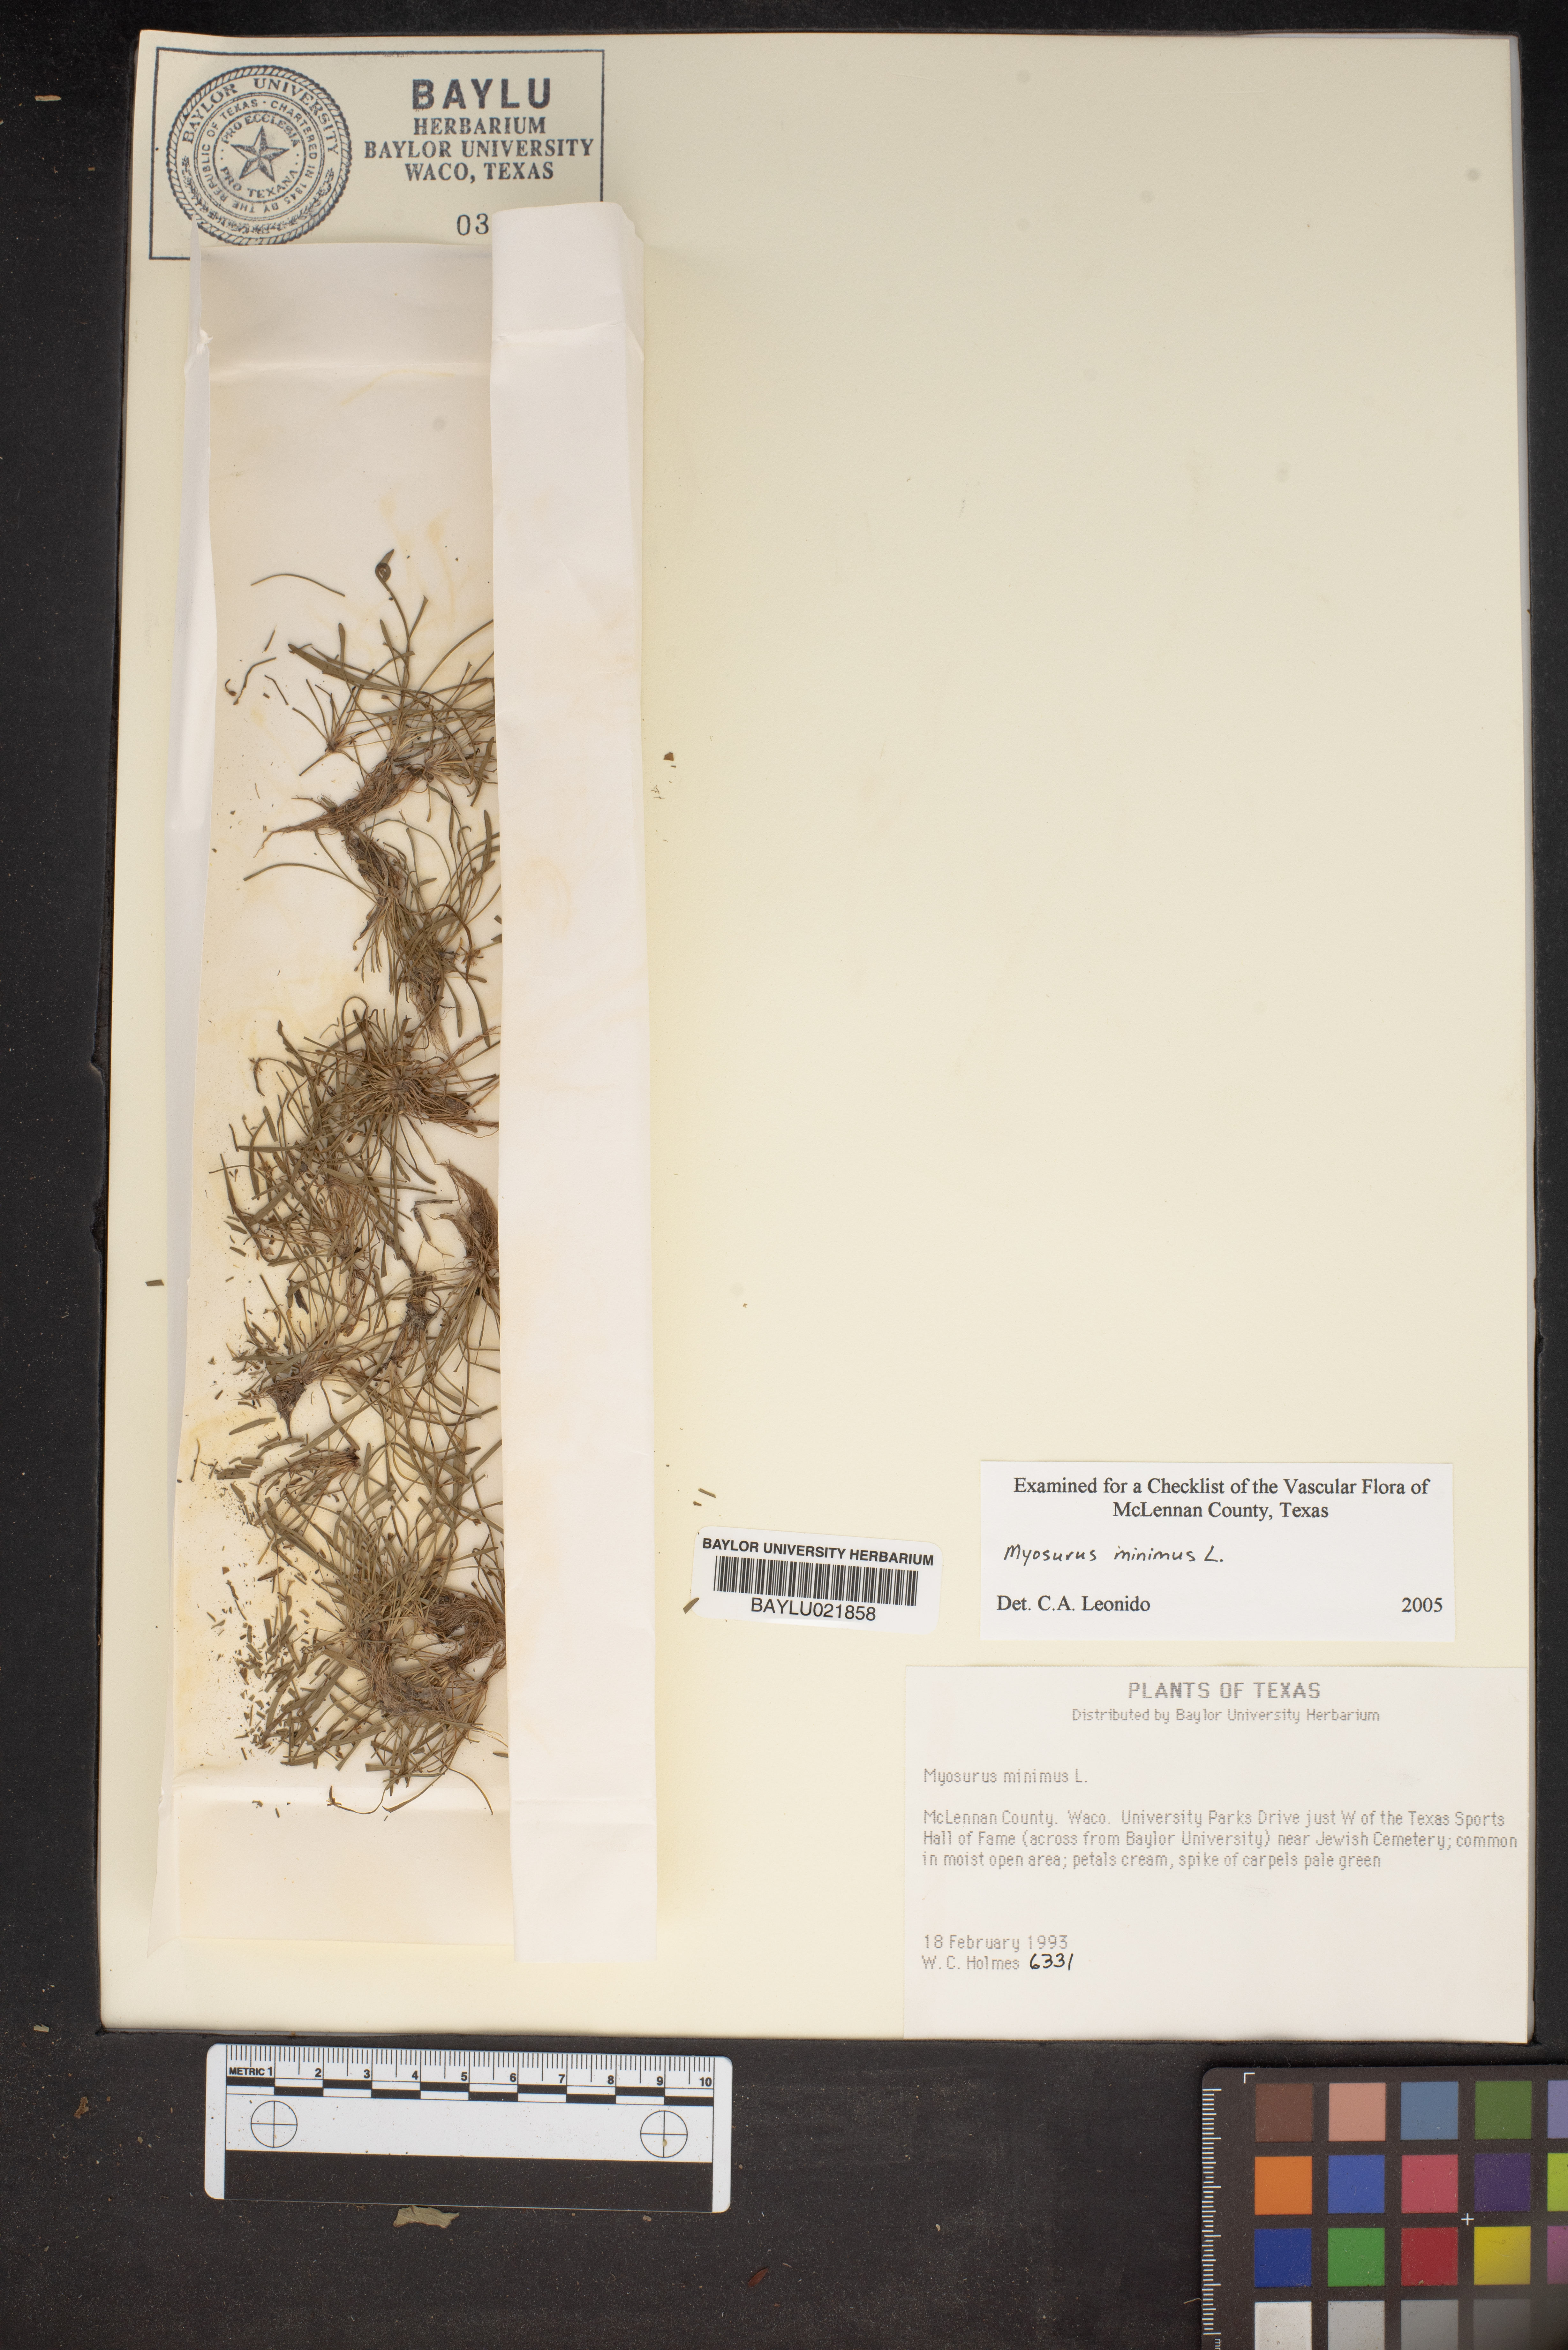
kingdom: Plantae
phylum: Tracheophyta
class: Magnoliopsida
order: Ranunculales
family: Ranunculaceae
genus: Myosurus
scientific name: Myosurus minimus
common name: Mousetail
